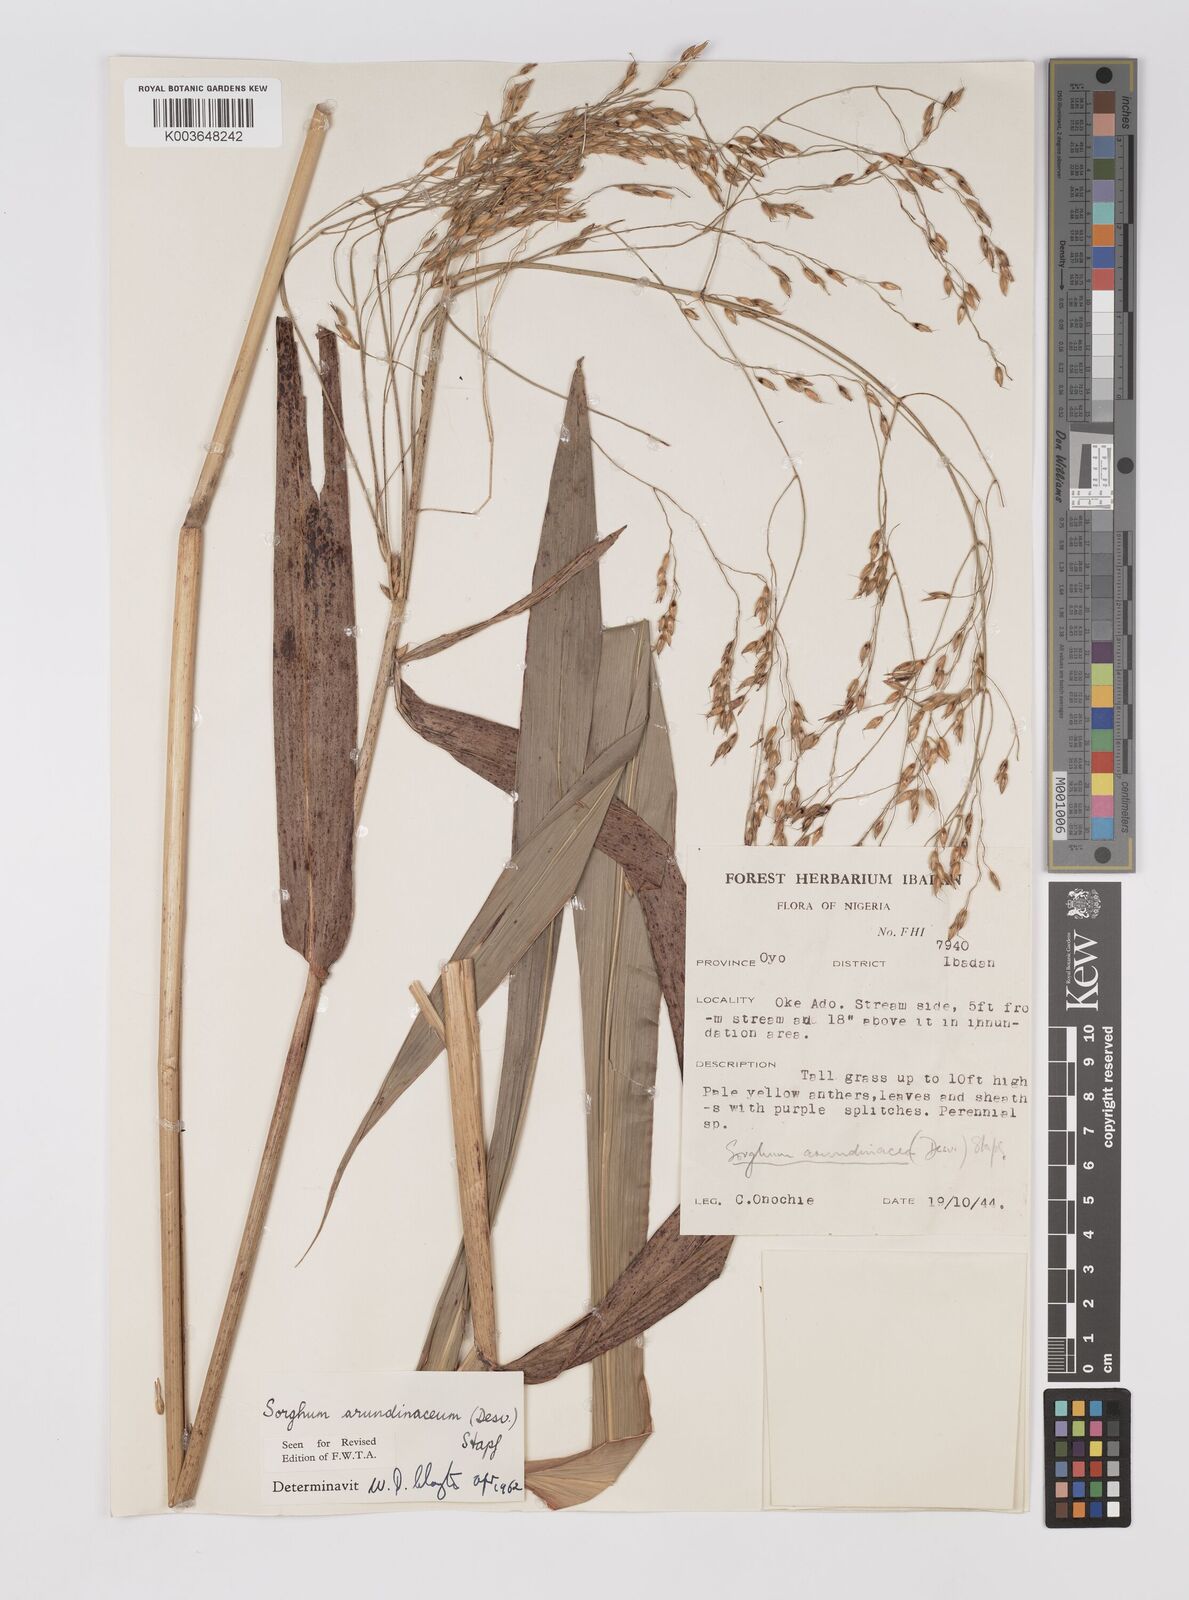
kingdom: Plantae
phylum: Tracheophyta
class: Liliopsida
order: Poales
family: Poaceae
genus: Sorghum
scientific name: Sorghum arundinaceum
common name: Sorghum
